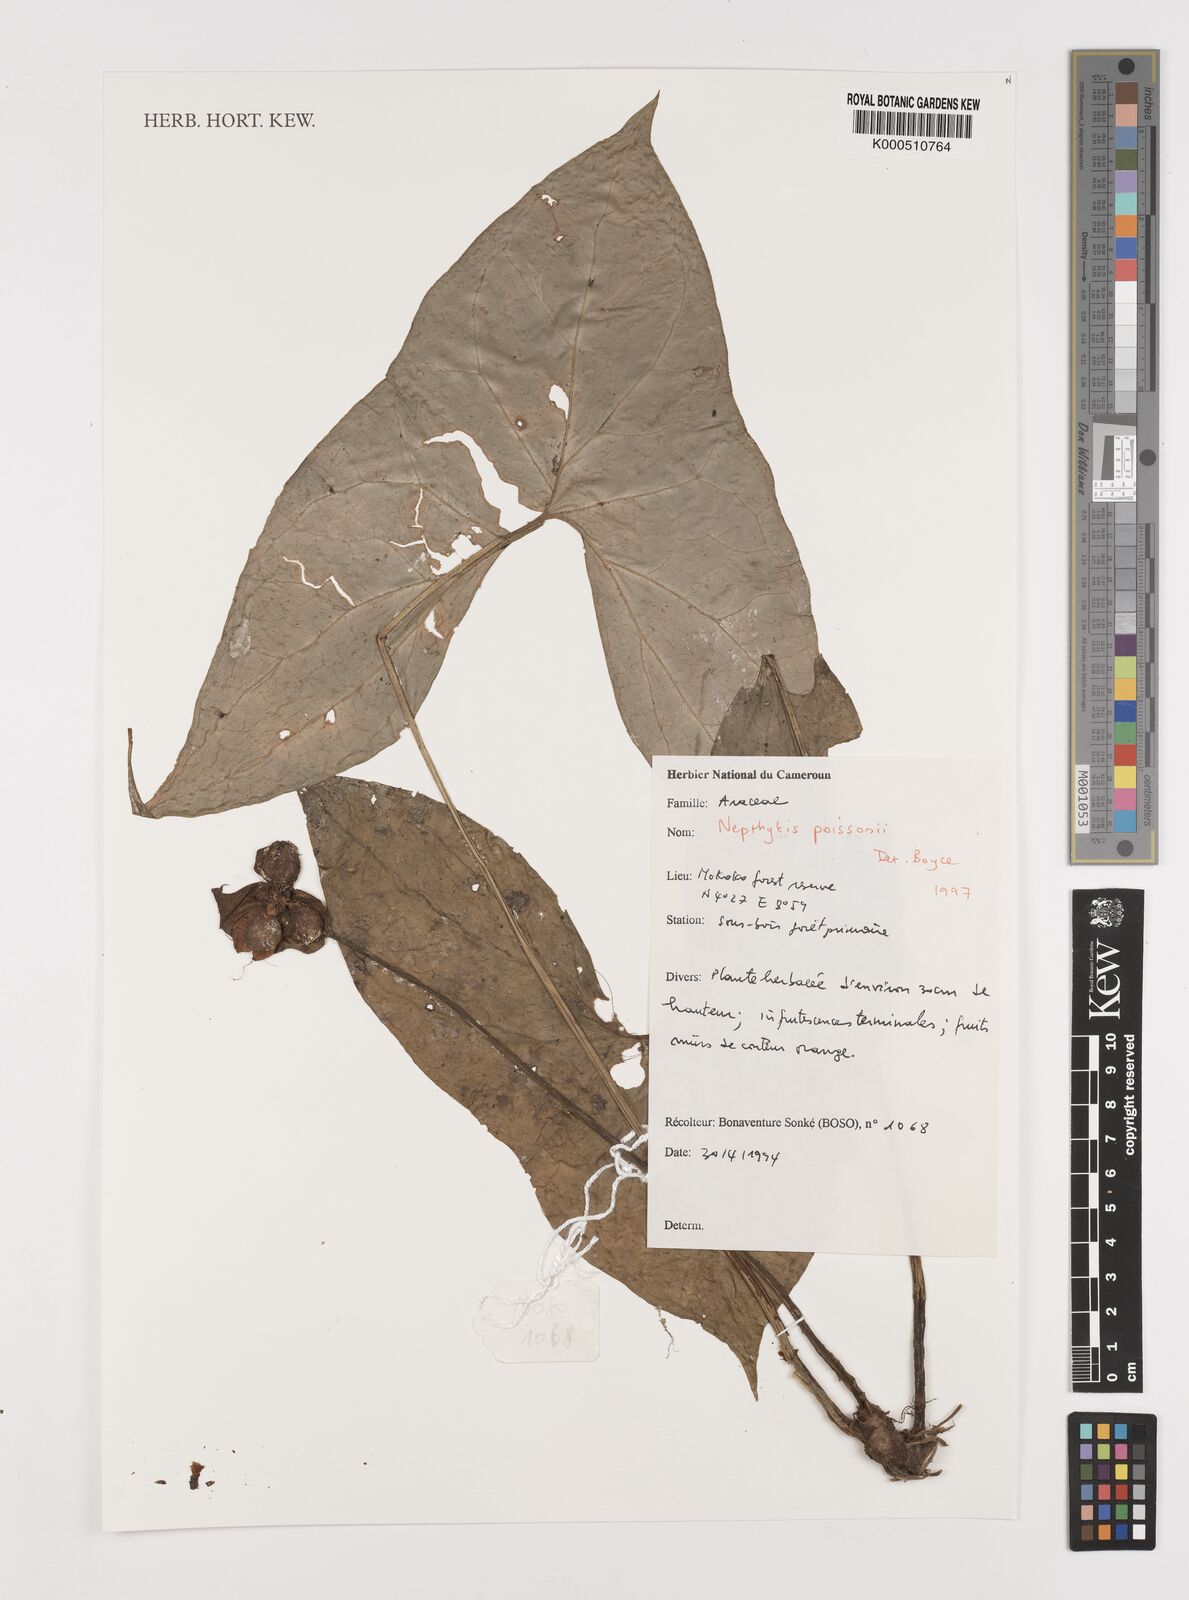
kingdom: Plantae
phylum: Tracheophyta
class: Liliopsida
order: Alismatales
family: Araceae
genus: Nephthytis
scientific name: Nephthytis poissonii
